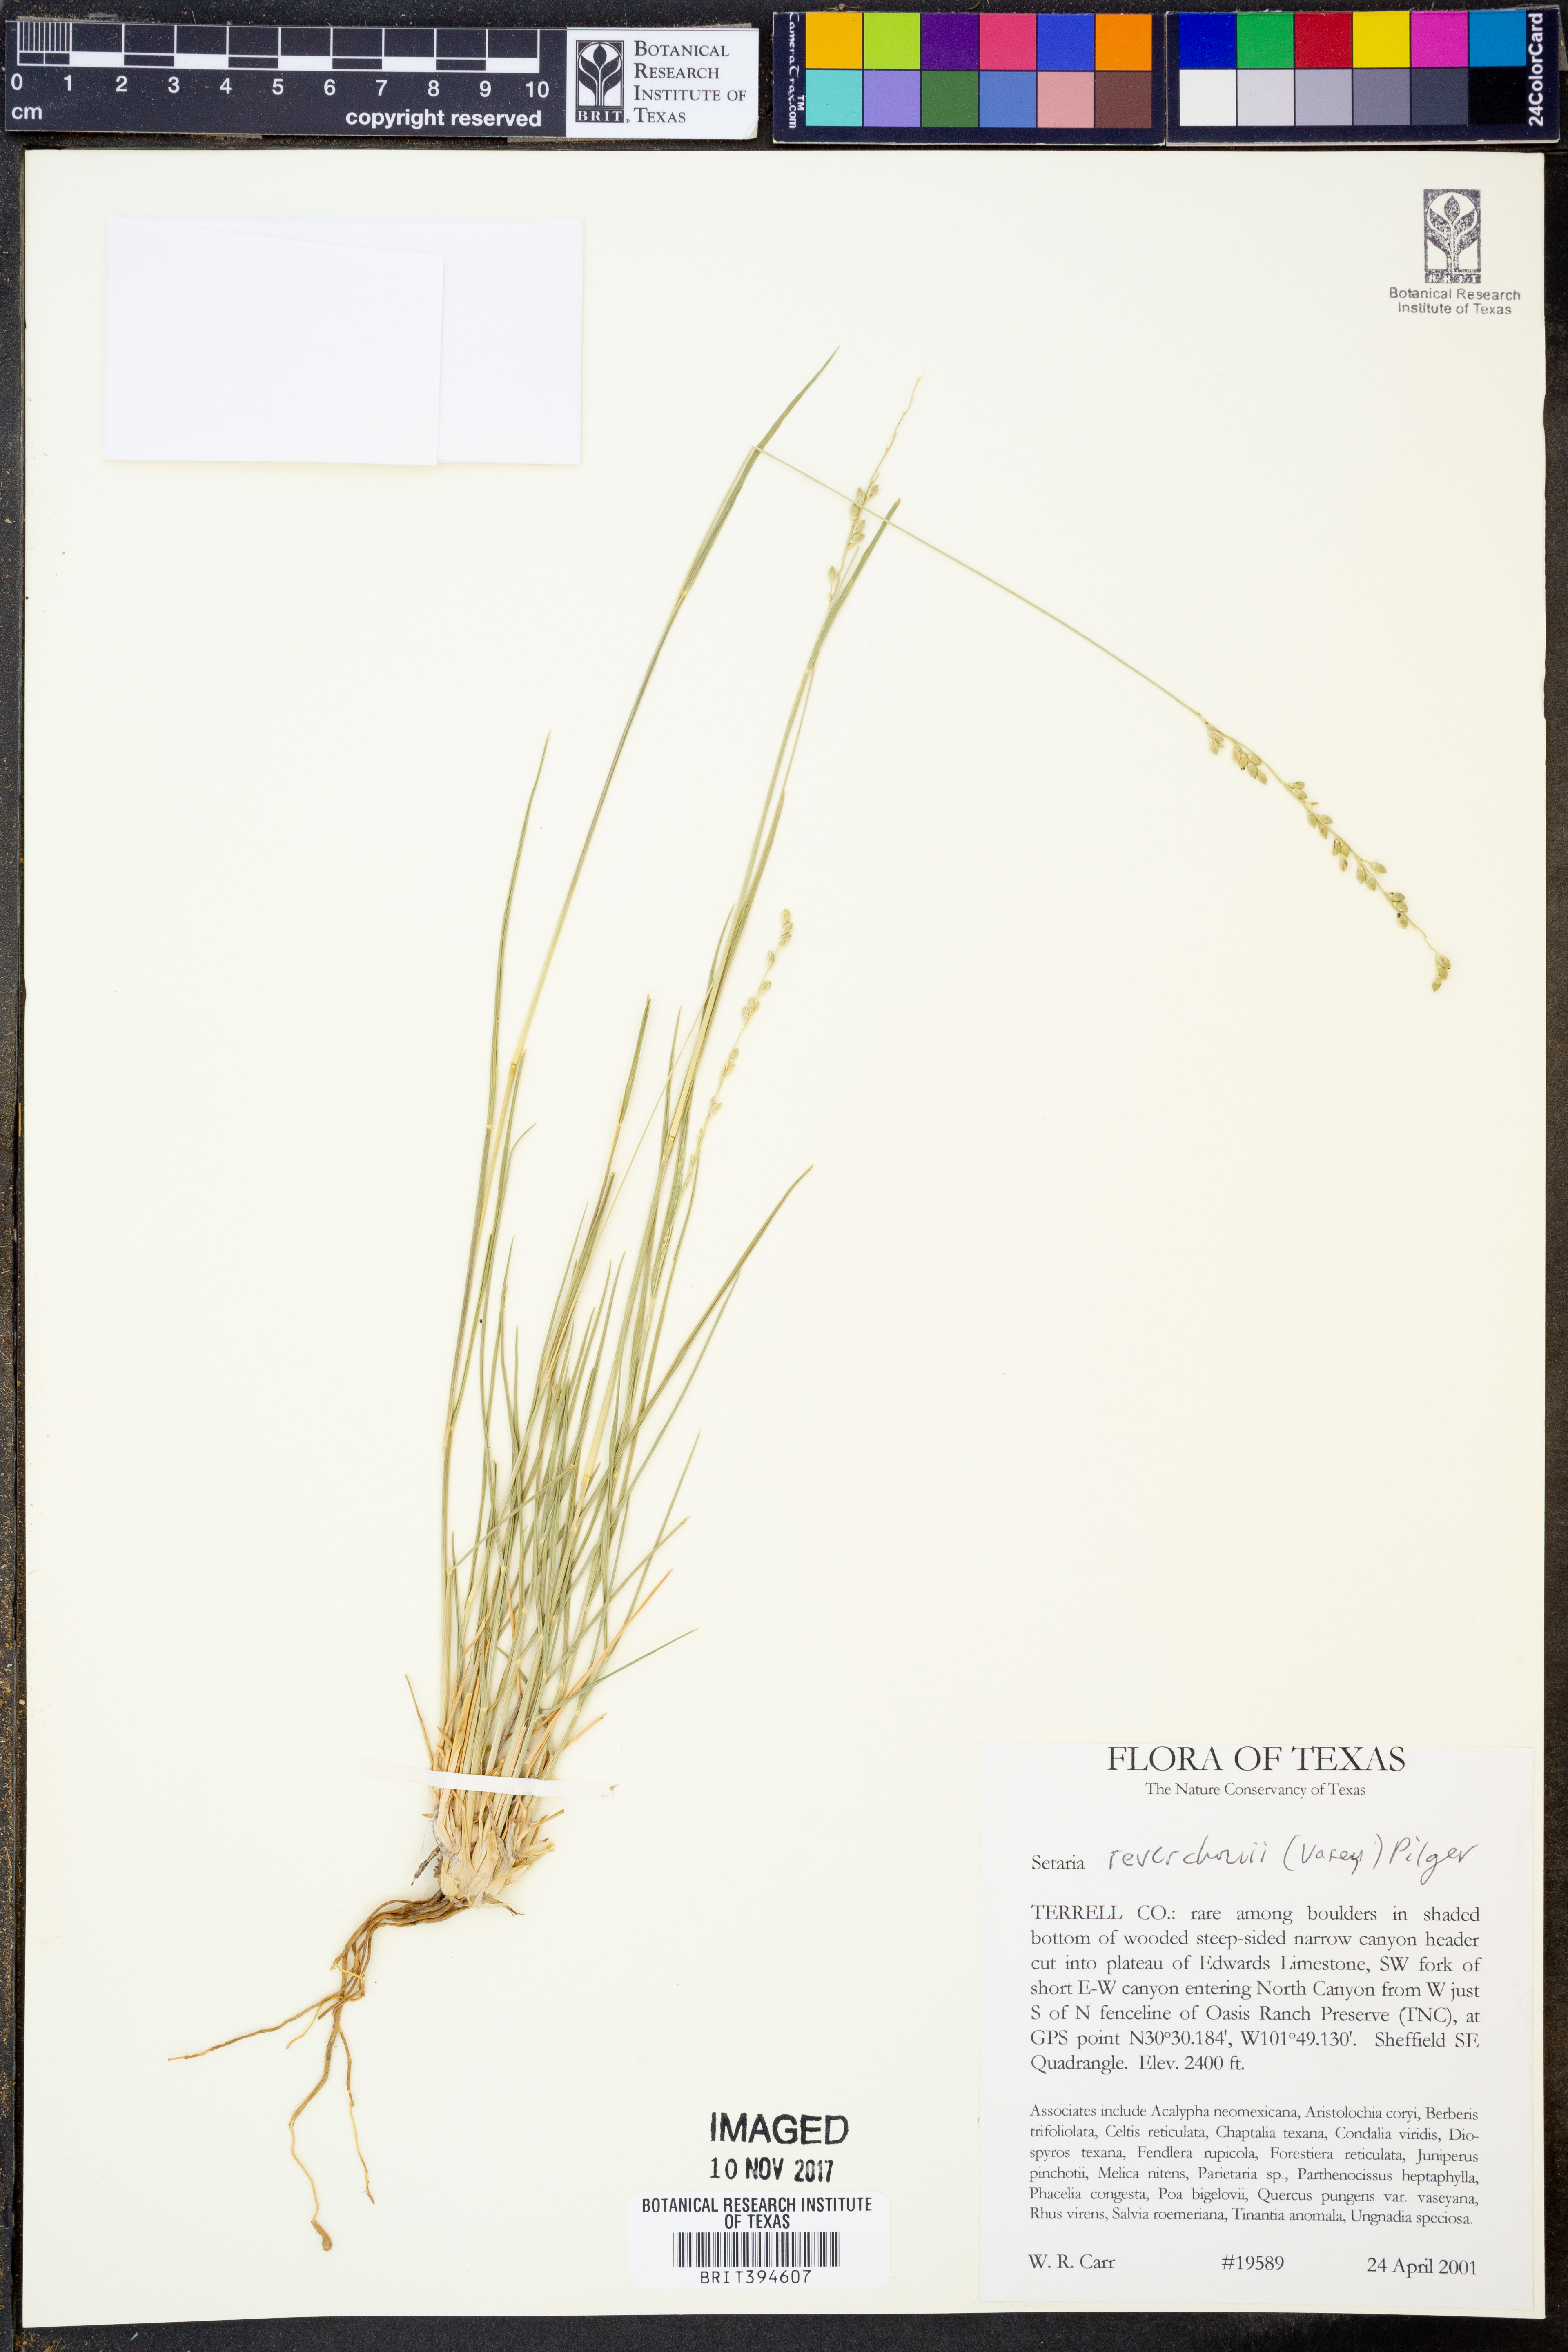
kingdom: Plantae
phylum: Tracheophyta
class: Liliopsida
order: Poales
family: Poaceae
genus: Setaria
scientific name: Setaria reverchonii
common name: Reverchon's bristle grass
